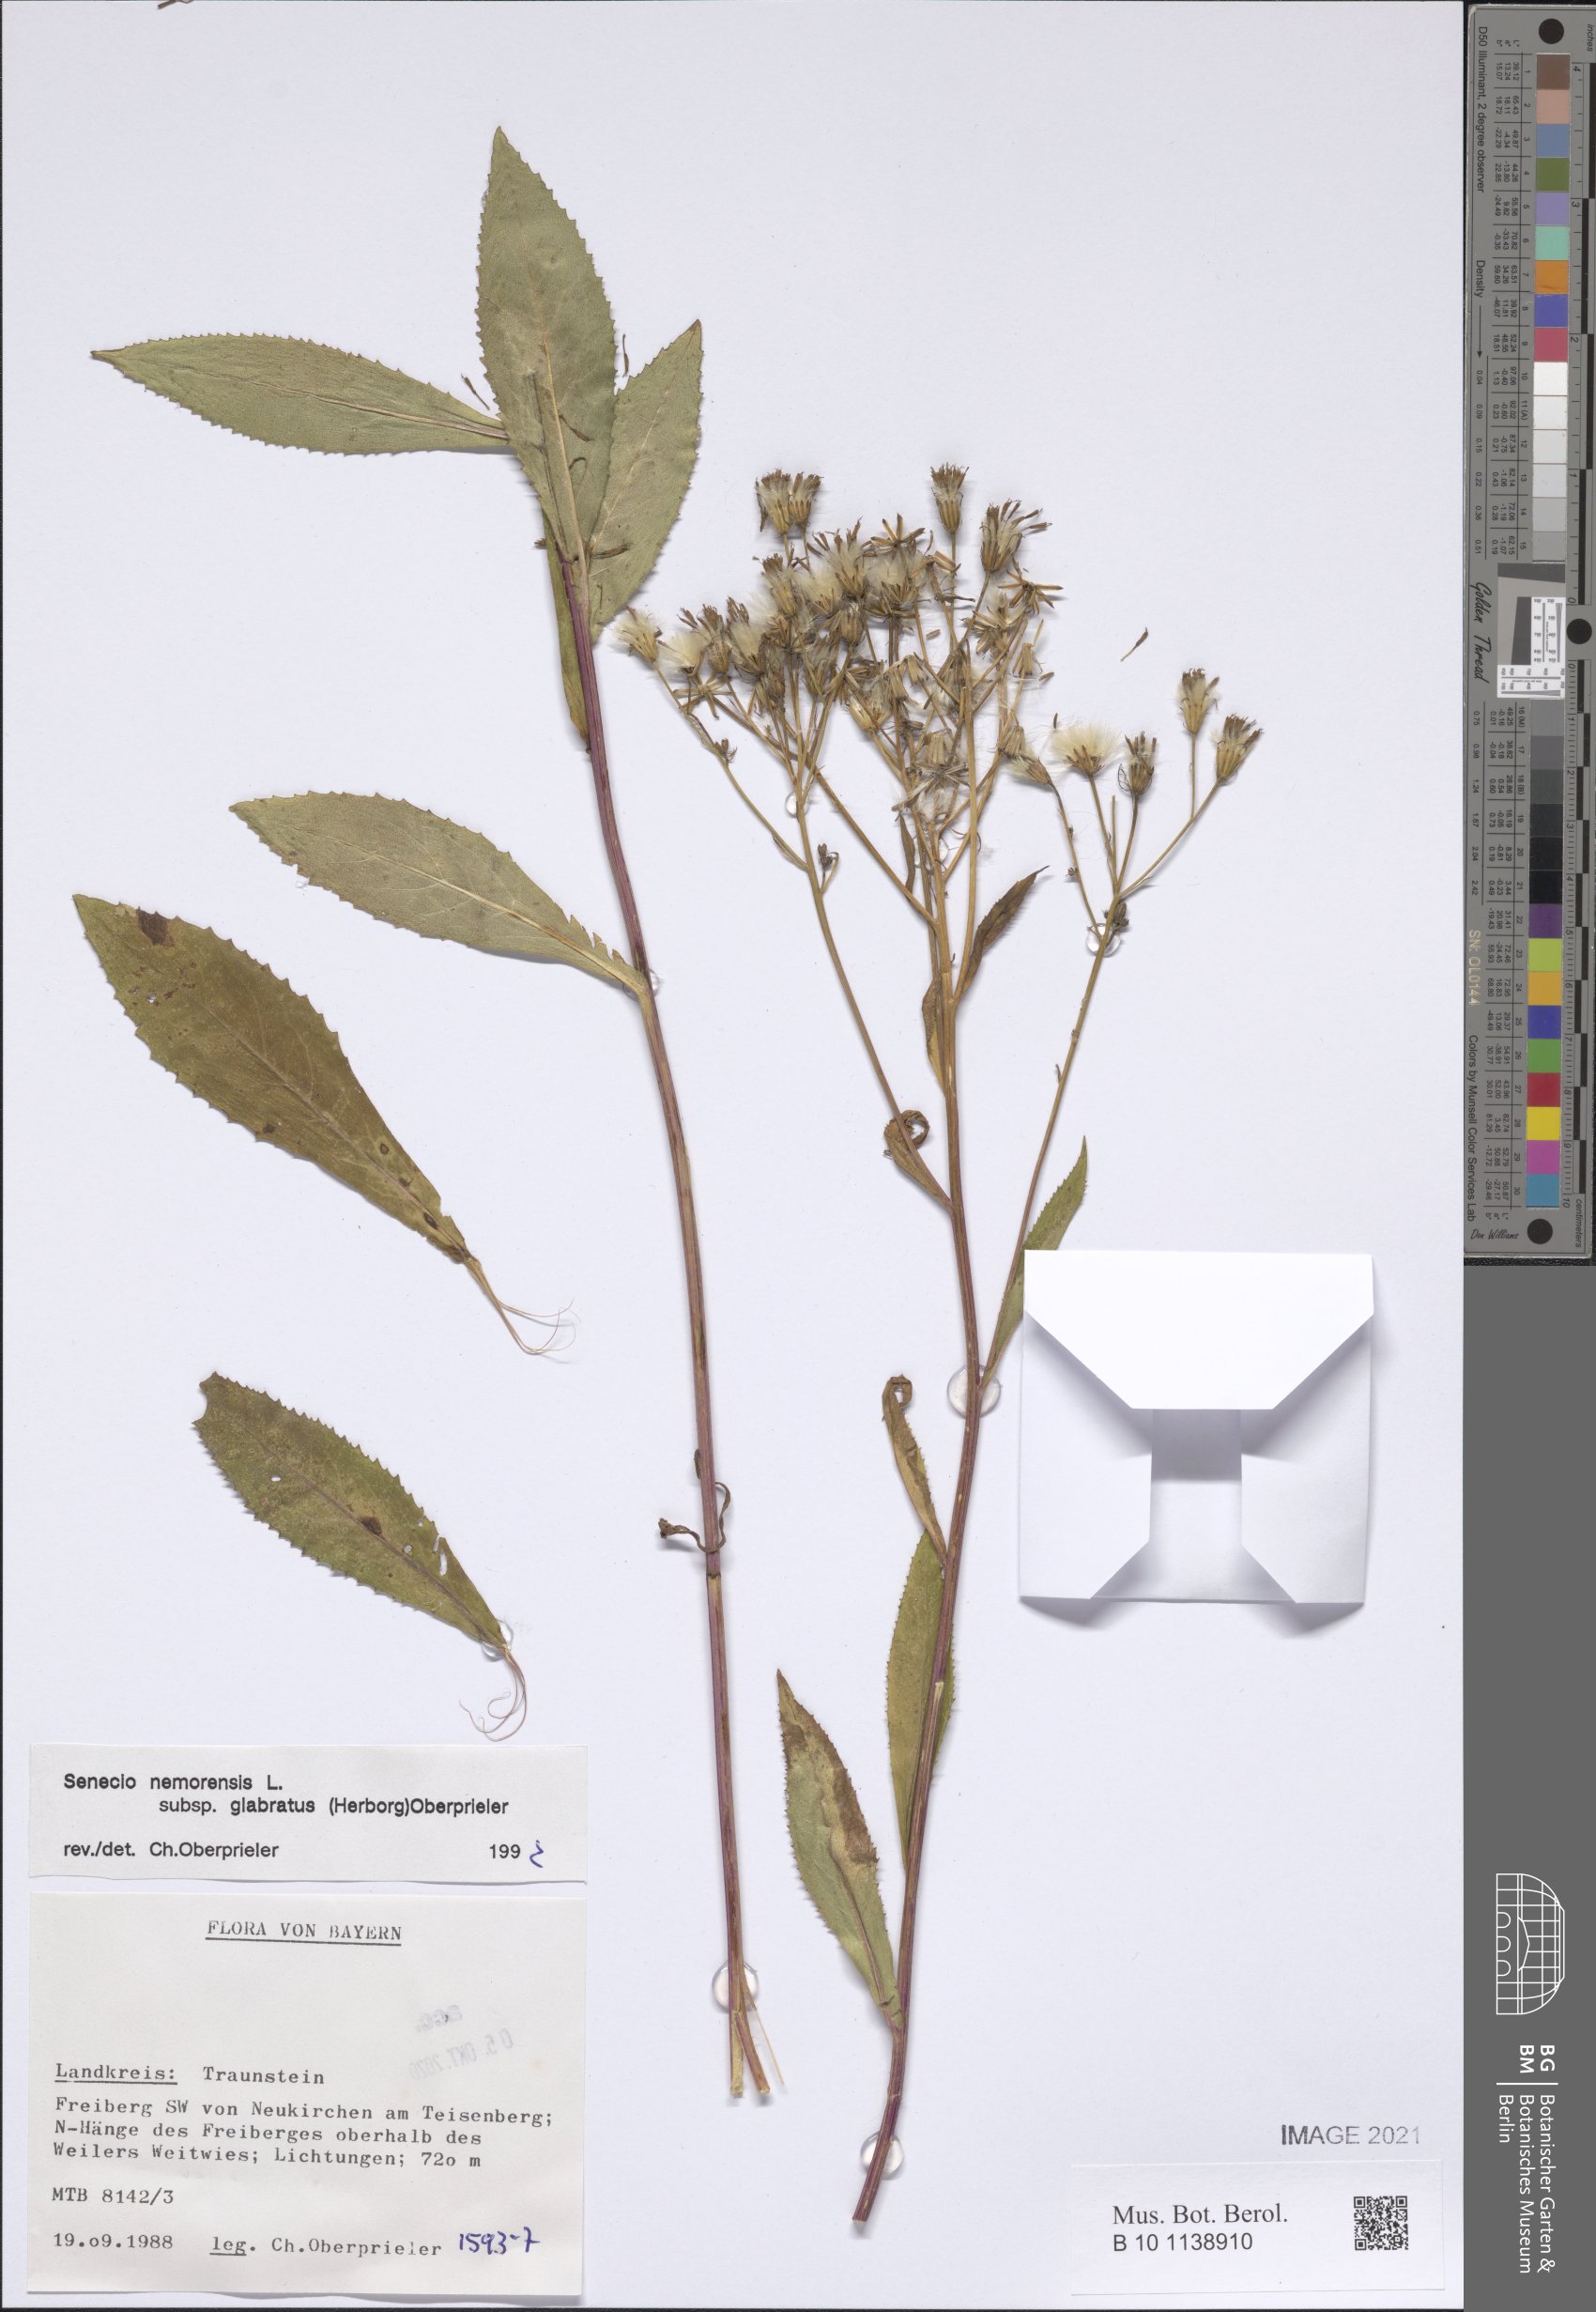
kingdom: Plantae
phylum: Tracheophyta
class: Magnoliopsida
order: Asterales
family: Asteraceae
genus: Senecio
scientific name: Senecio germanicus
